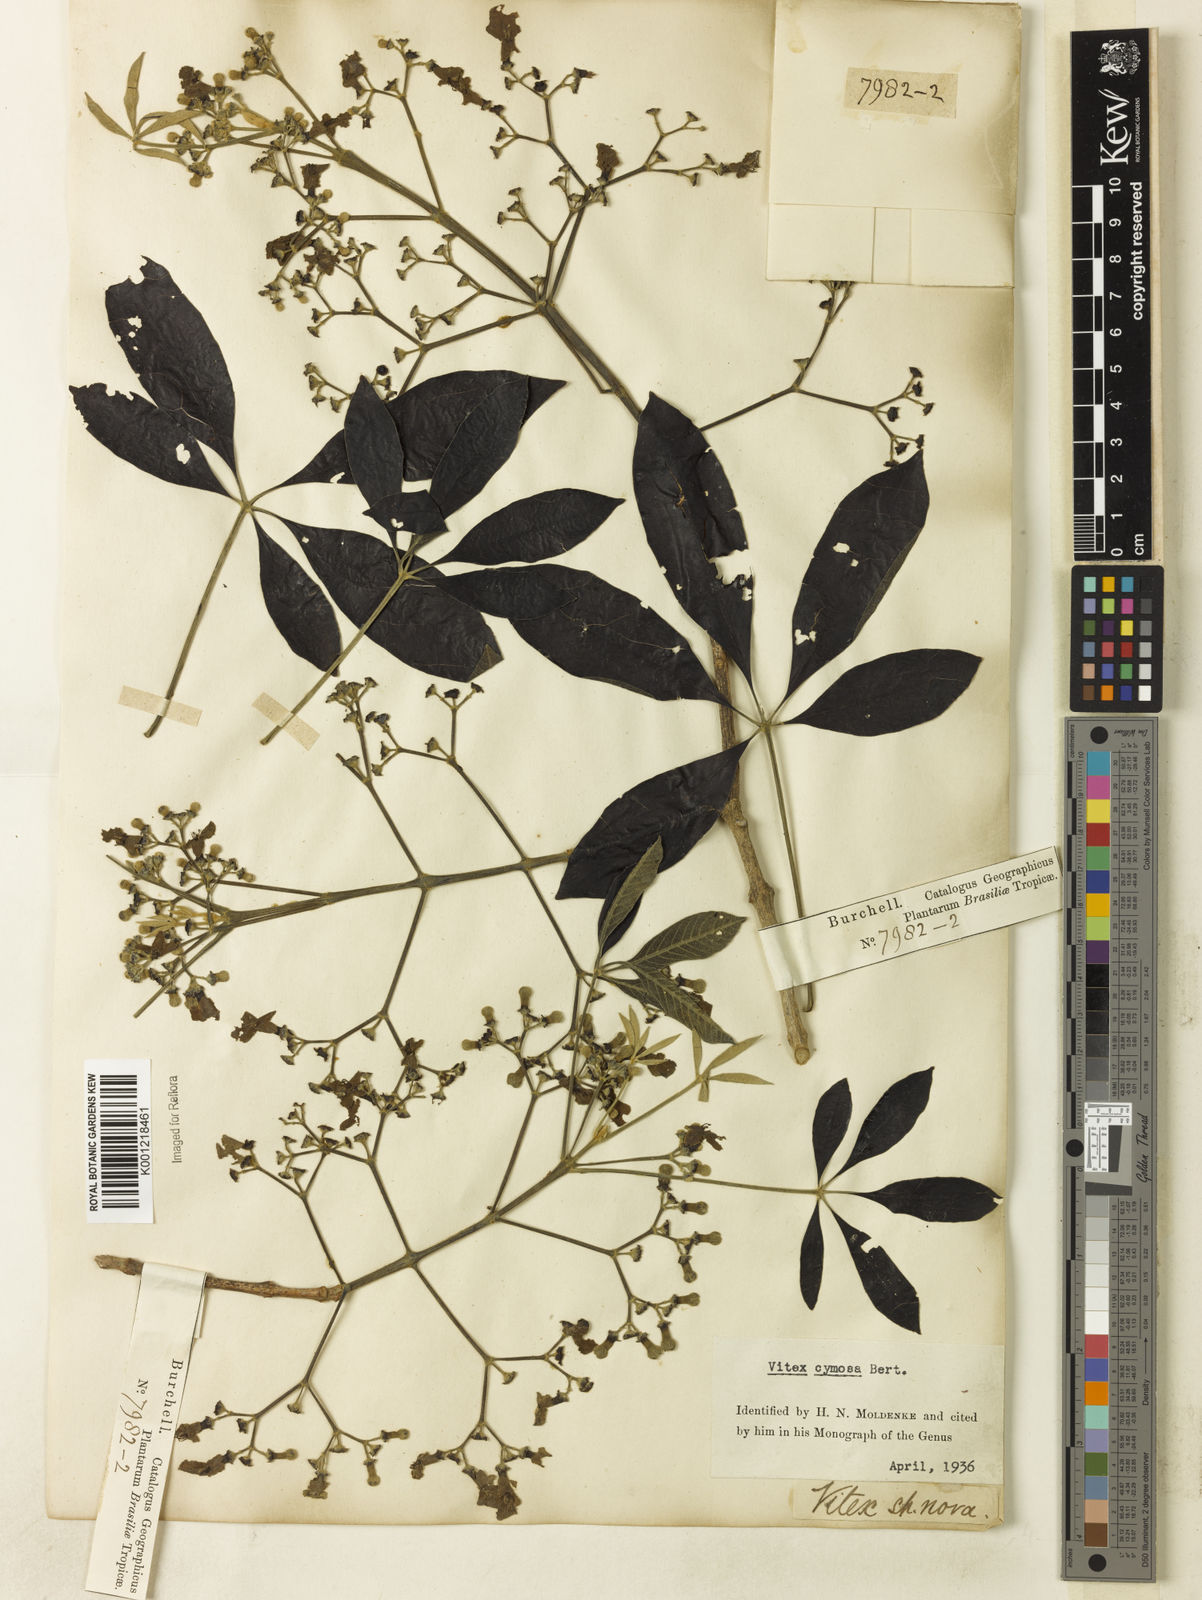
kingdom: Plantae
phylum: Tracheophyta
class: Magnoliopsida
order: Lamiales
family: Lamiaceae
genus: Vitex
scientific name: Vitex cymosa
